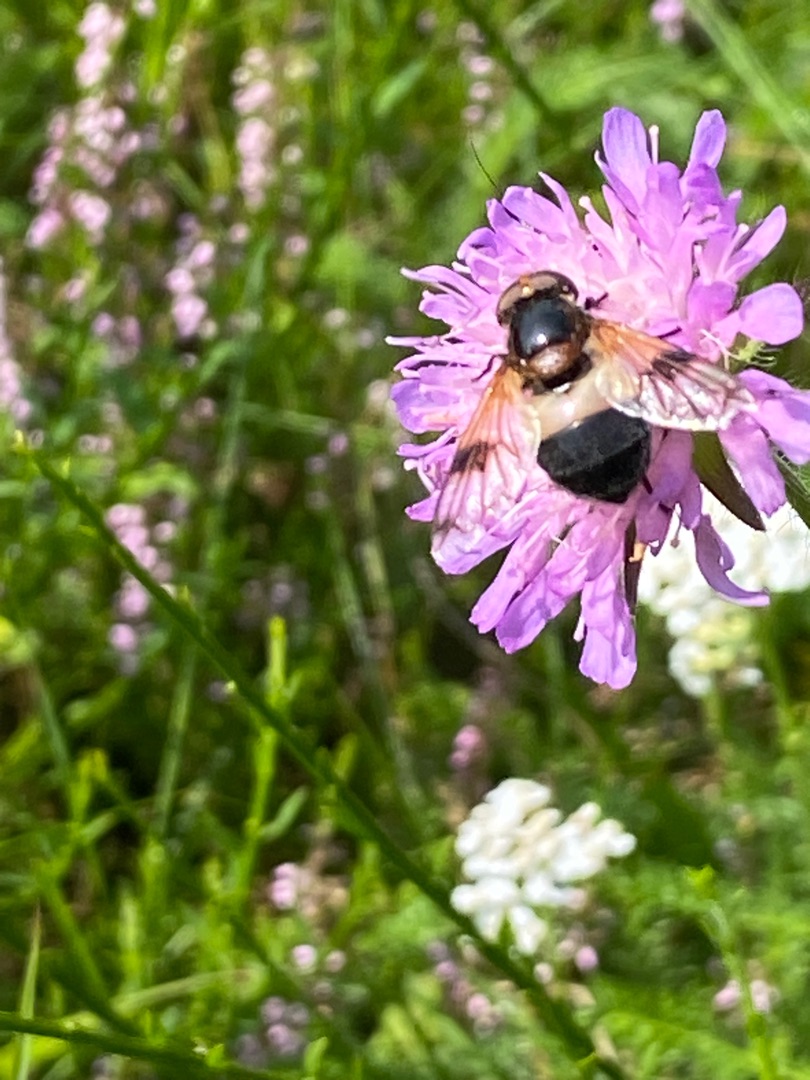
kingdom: Animalia
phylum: Arthropoda
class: Insecta
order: Diptera
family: Syrphidae
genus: Volucella
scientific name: Volucella pellucens
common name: Hvidbåndet humlesvirreflue
